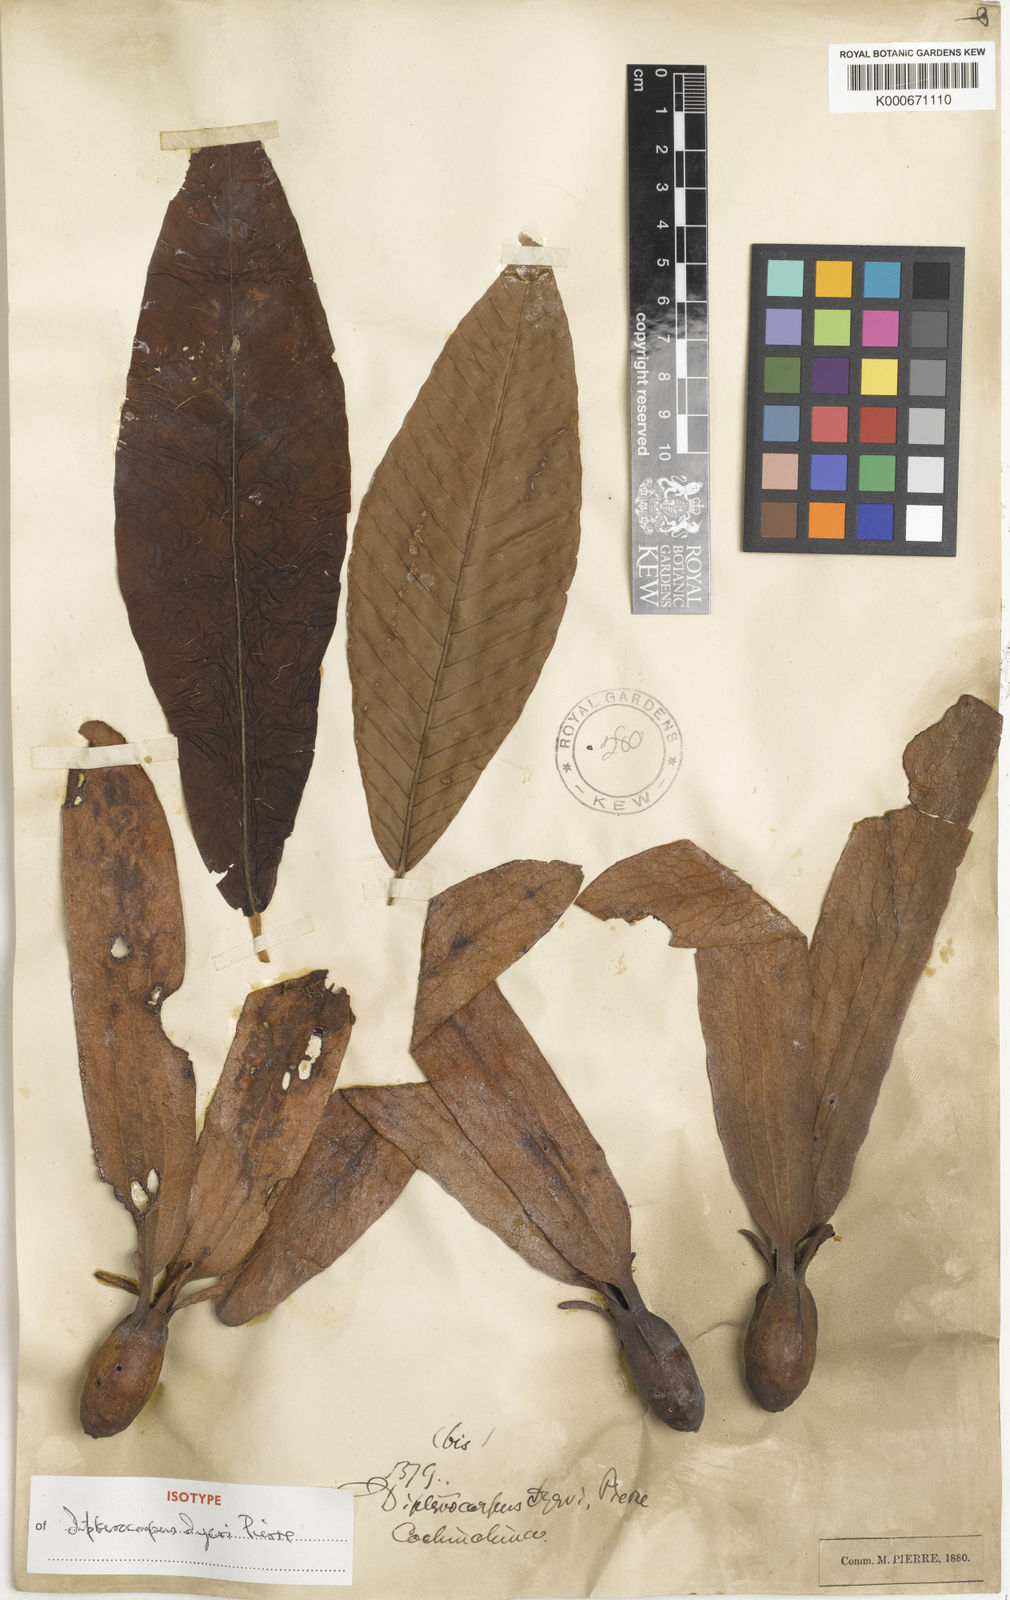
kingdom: Plantae
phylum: Tracheophyta
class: Magnoliopsida
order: Malvales
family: Dipterocarpaceae
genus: Dipterocarpus
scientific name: Dipterocarpus
